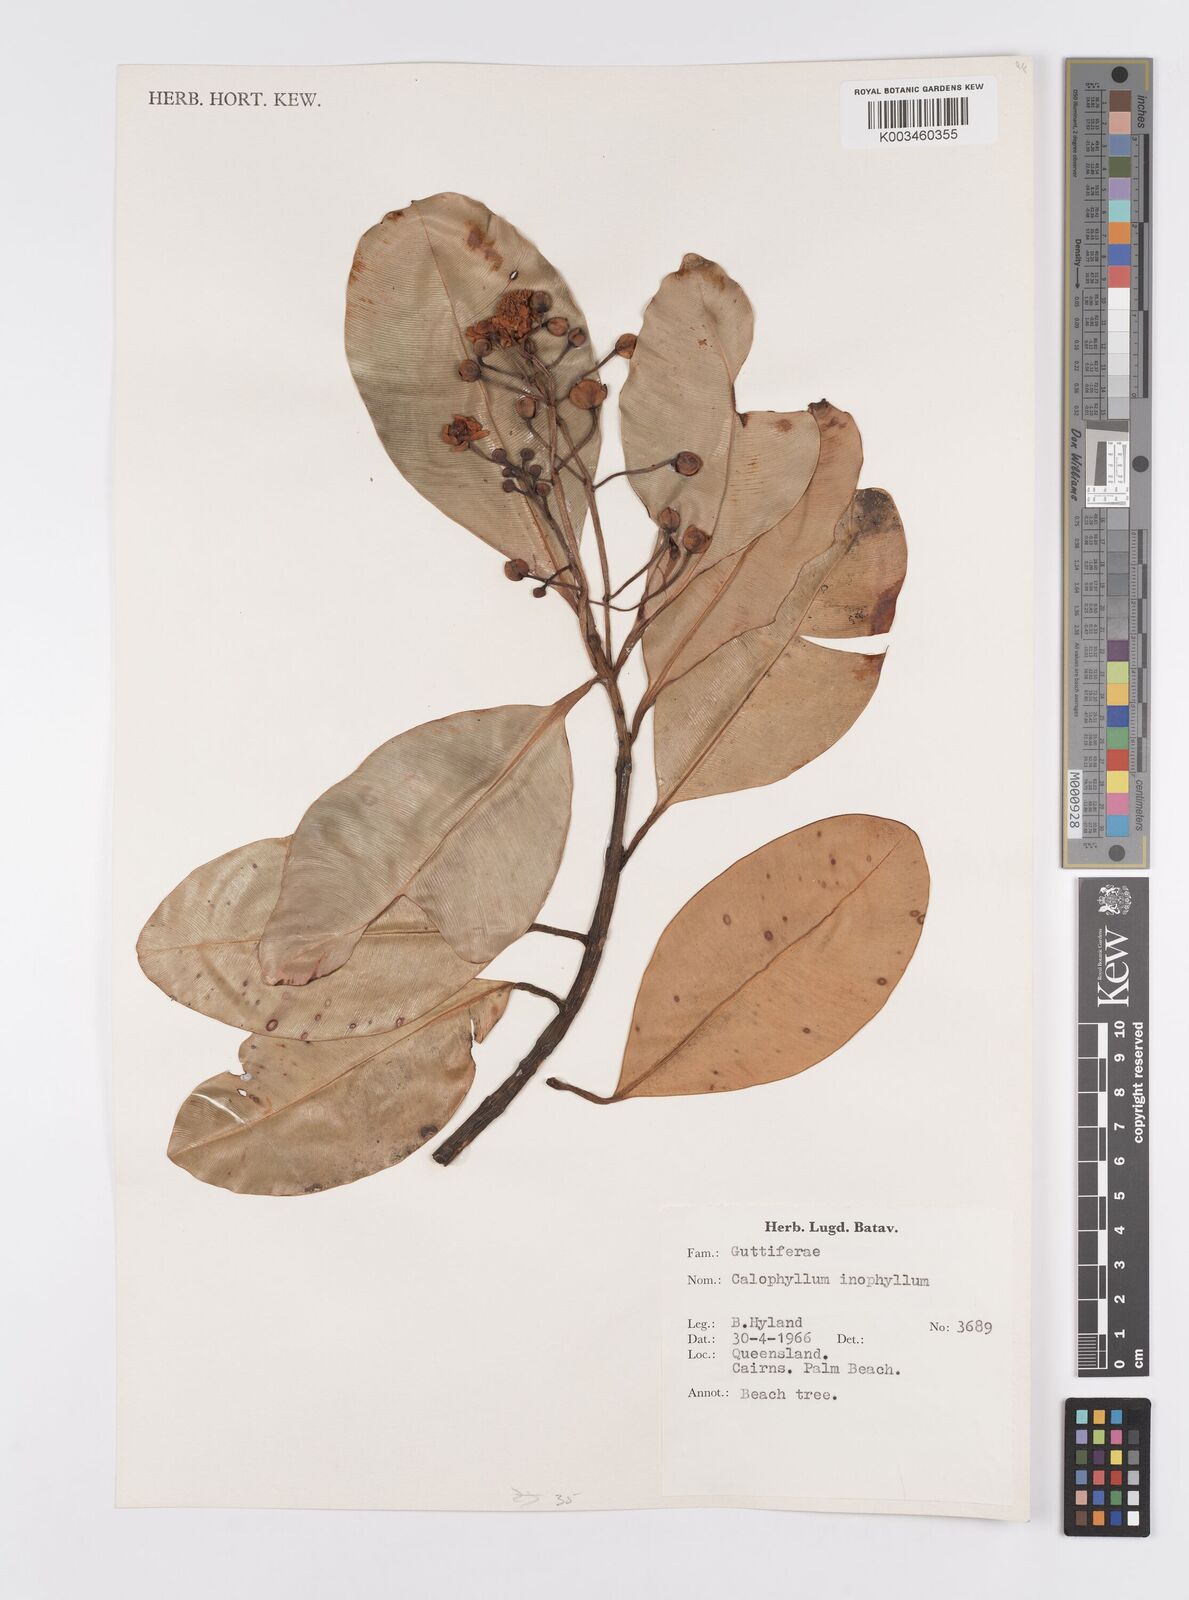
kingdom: Plantae
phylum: Tracheophyta
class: Magnoliopsida
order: Malpighiales
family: Calophyllaceae
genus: Calophyllum
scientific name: Calophyllum inophyllum
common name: Alexandrian laurel
